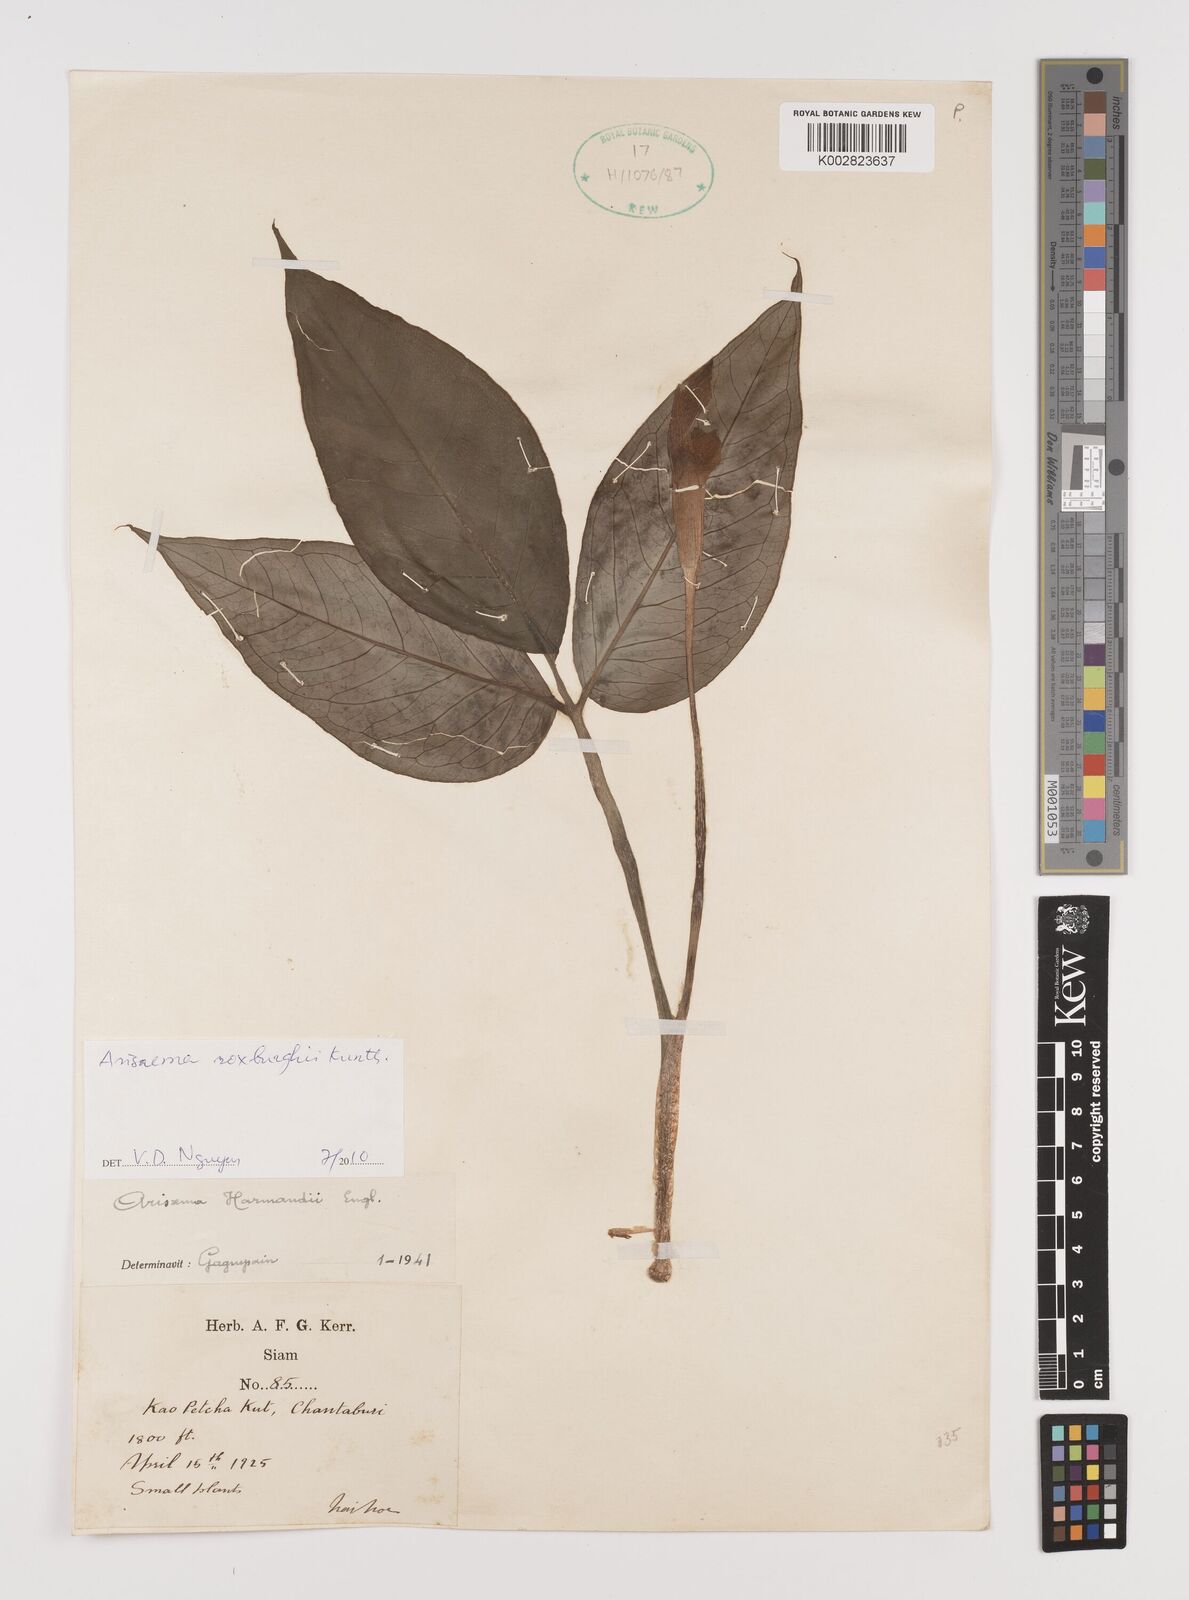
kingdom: Plantae
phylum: Tracheophyta
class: Liliopsida
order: Alismatales
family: Araceae
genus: Arisaema
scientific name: Arisaema roxburghii
